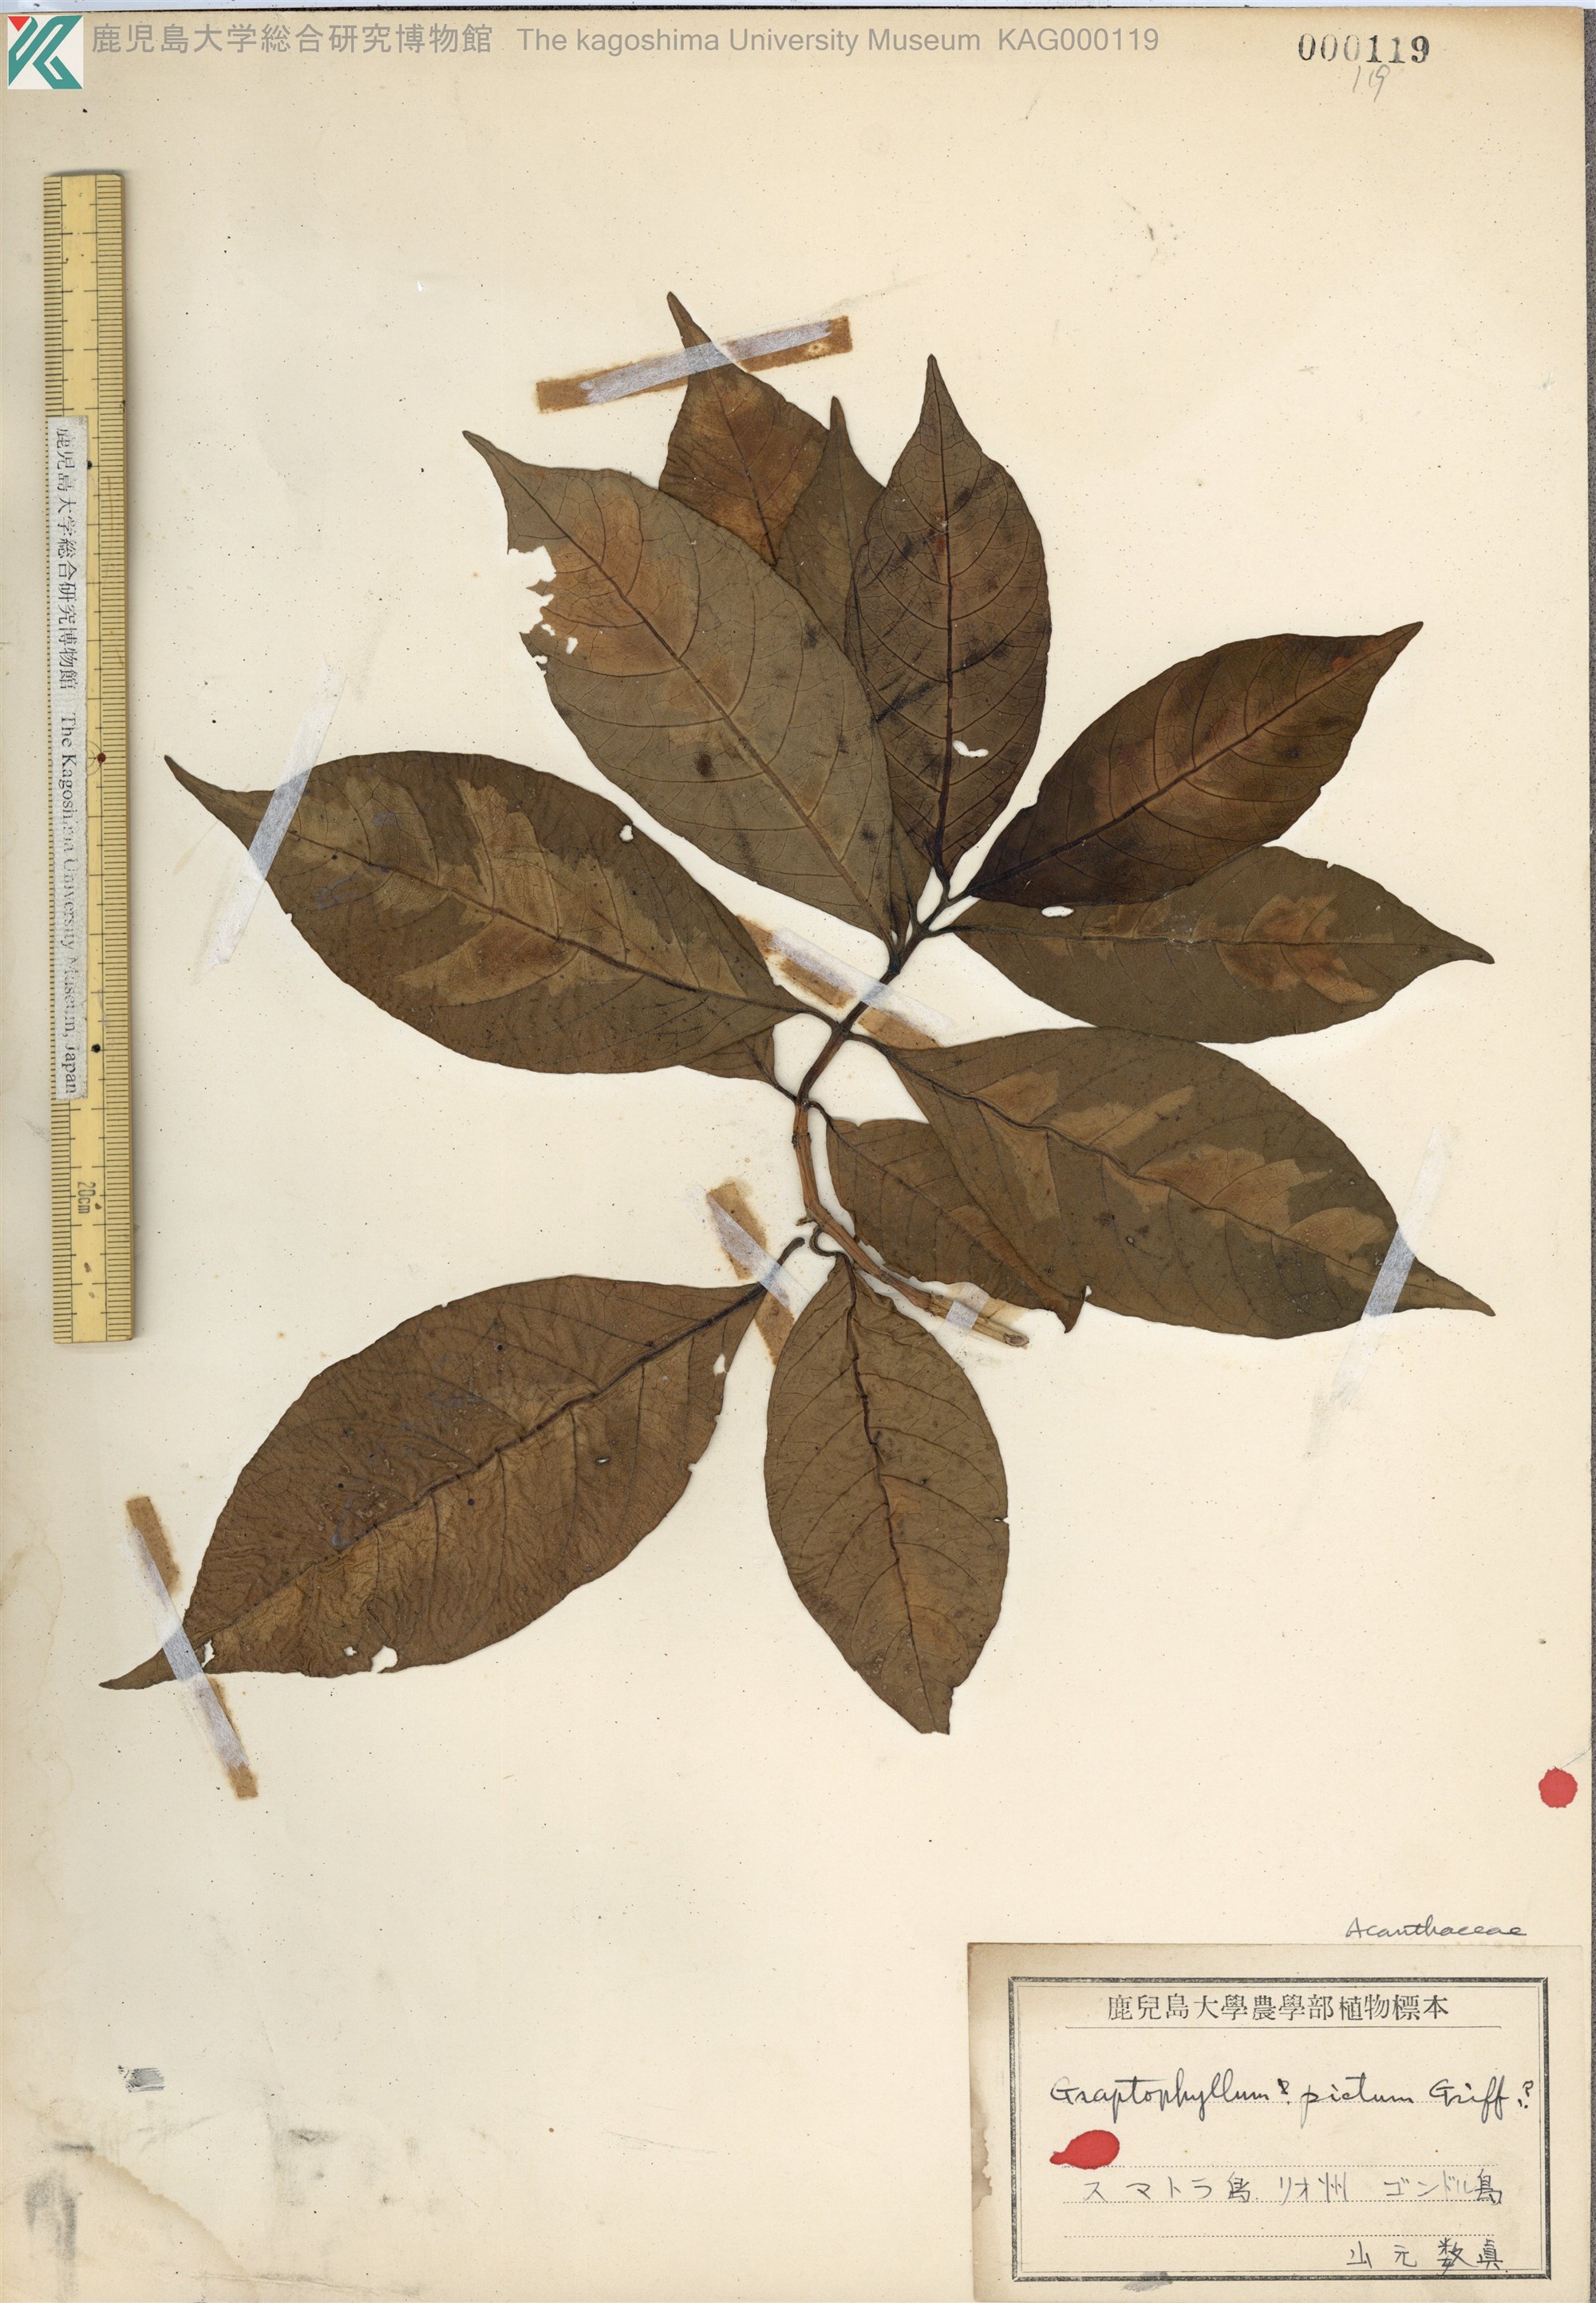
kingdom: Plantae
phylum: Tracheophyta
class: Magnoliopsida
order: Lamiales
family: Acanthaceae
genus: Graptophyllum
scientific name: Graptophyllum pictum
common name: Caricature-plant
